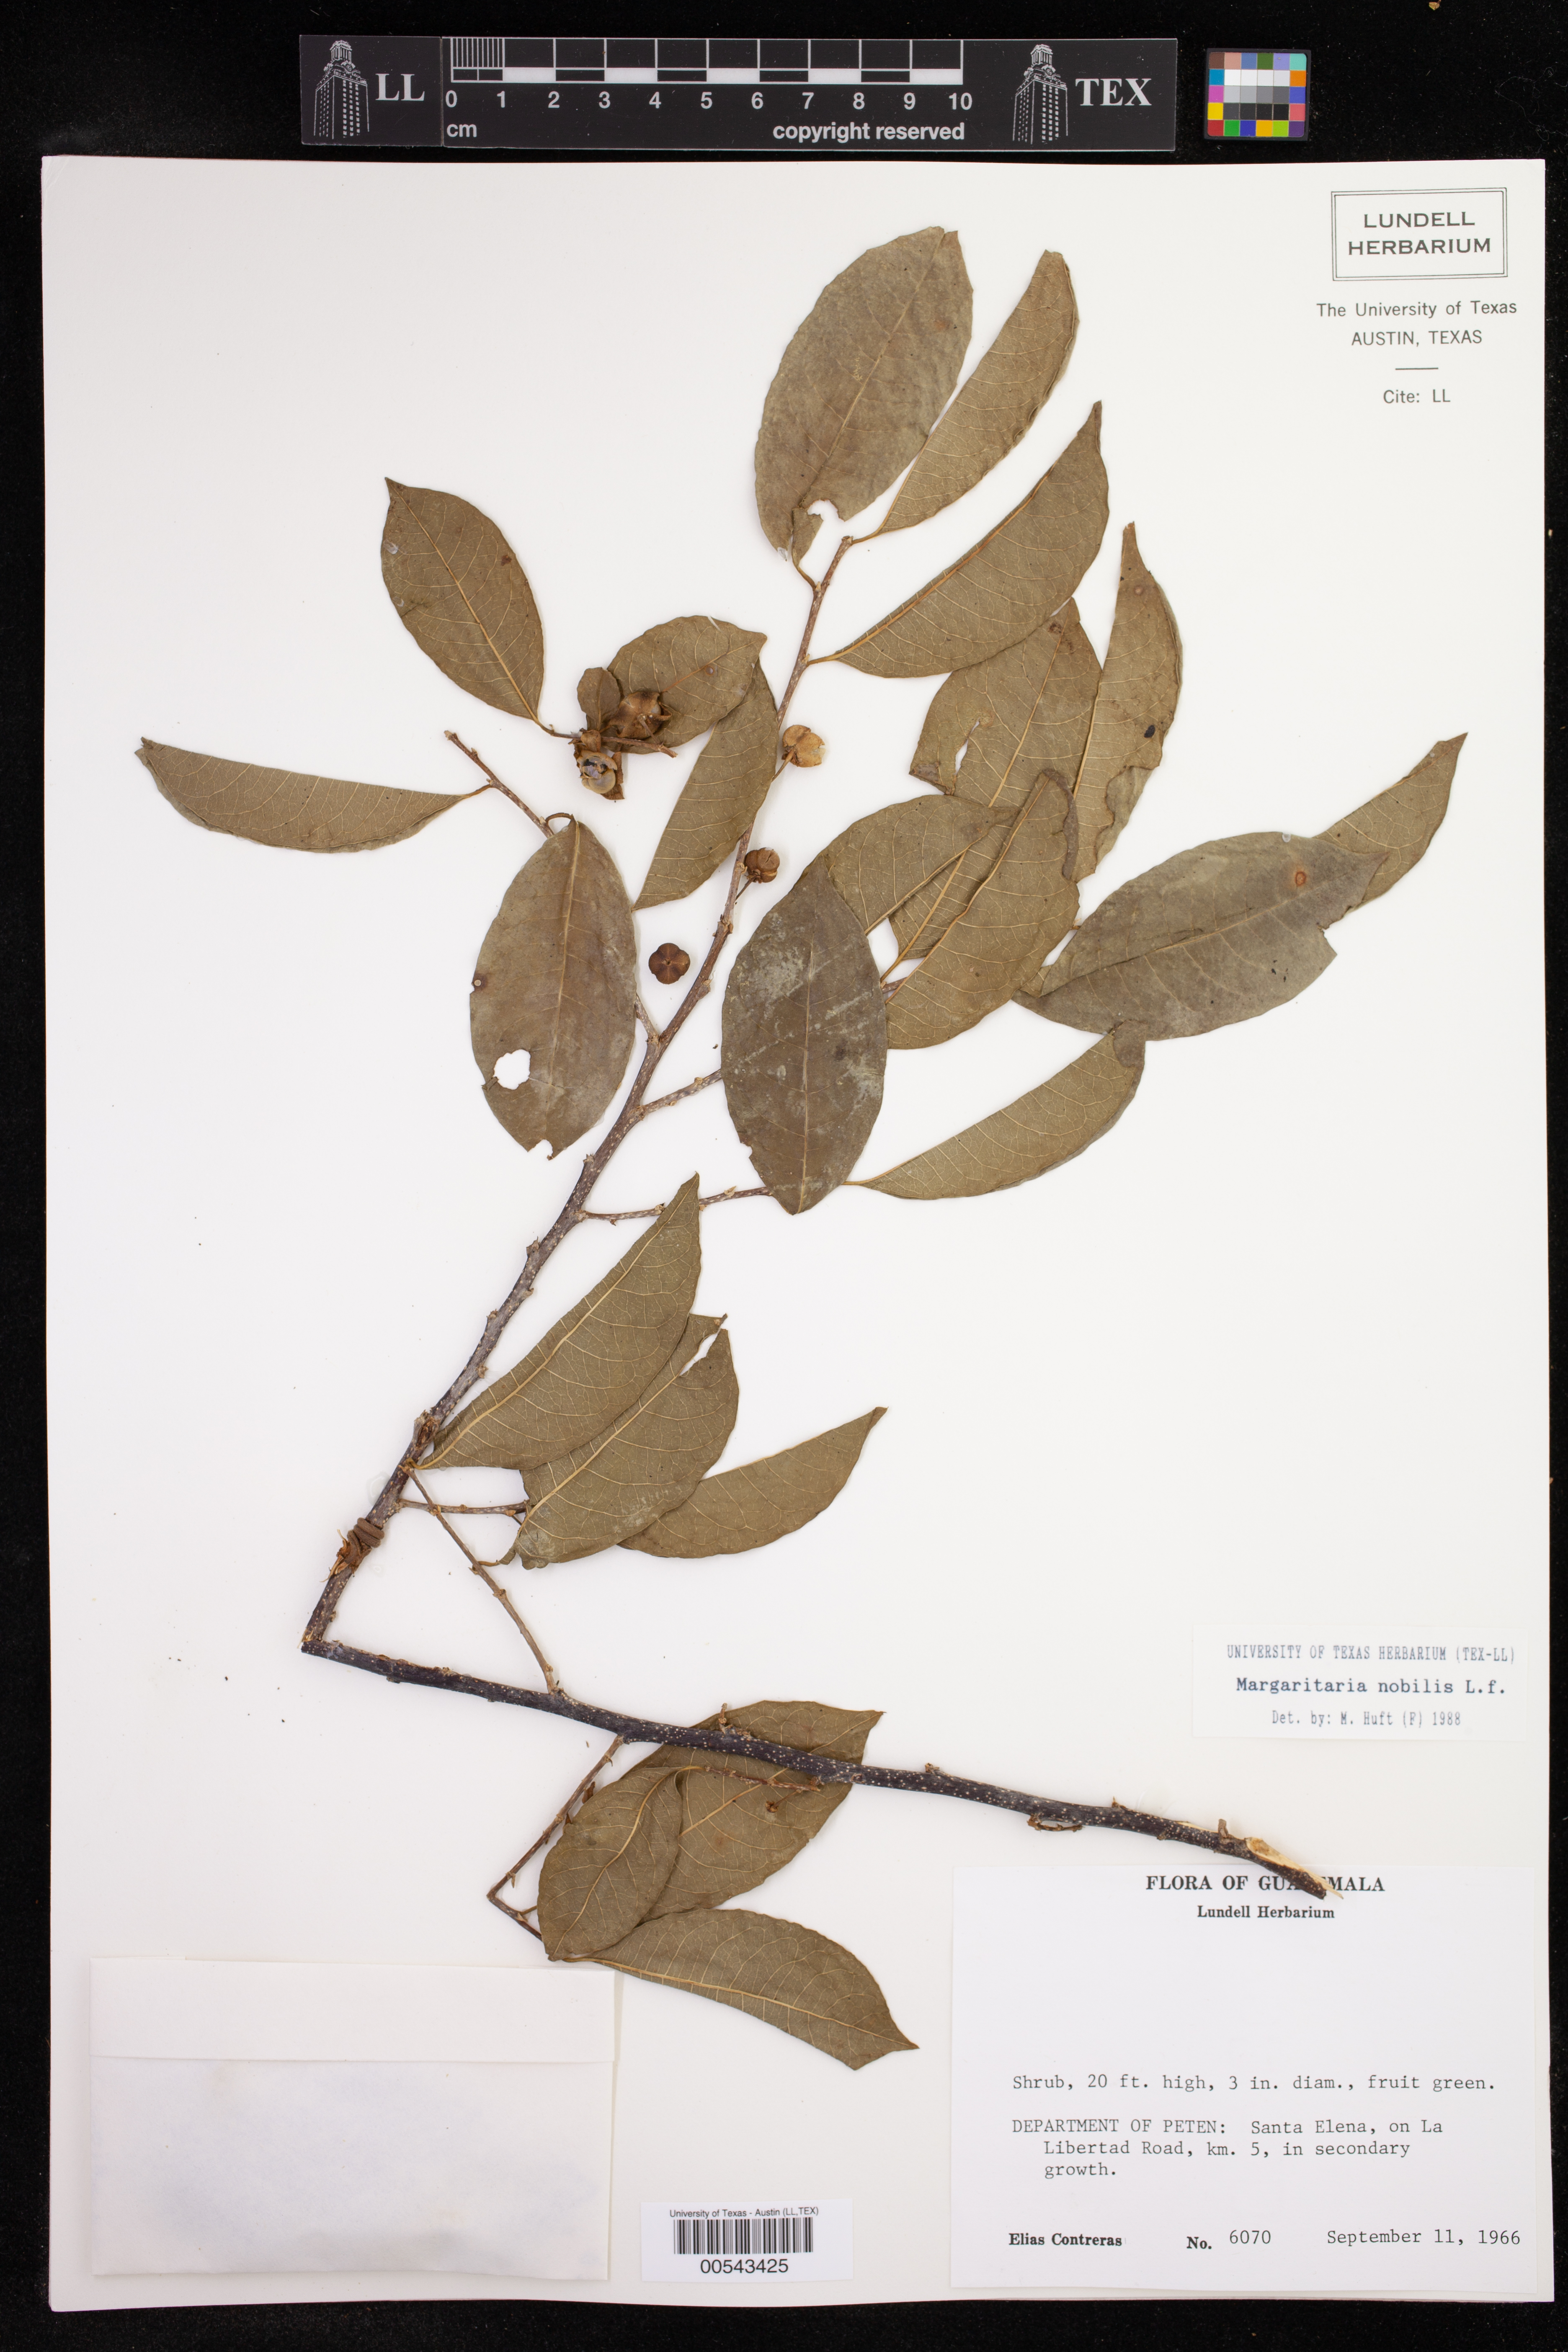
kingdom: Plantae
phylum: Tracheophyta
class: Magnoliopsida
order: Malpighiales
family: Phyllanthaceae
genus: Margaritaria
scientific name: Margaritaria nobilis
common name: Goose berry
